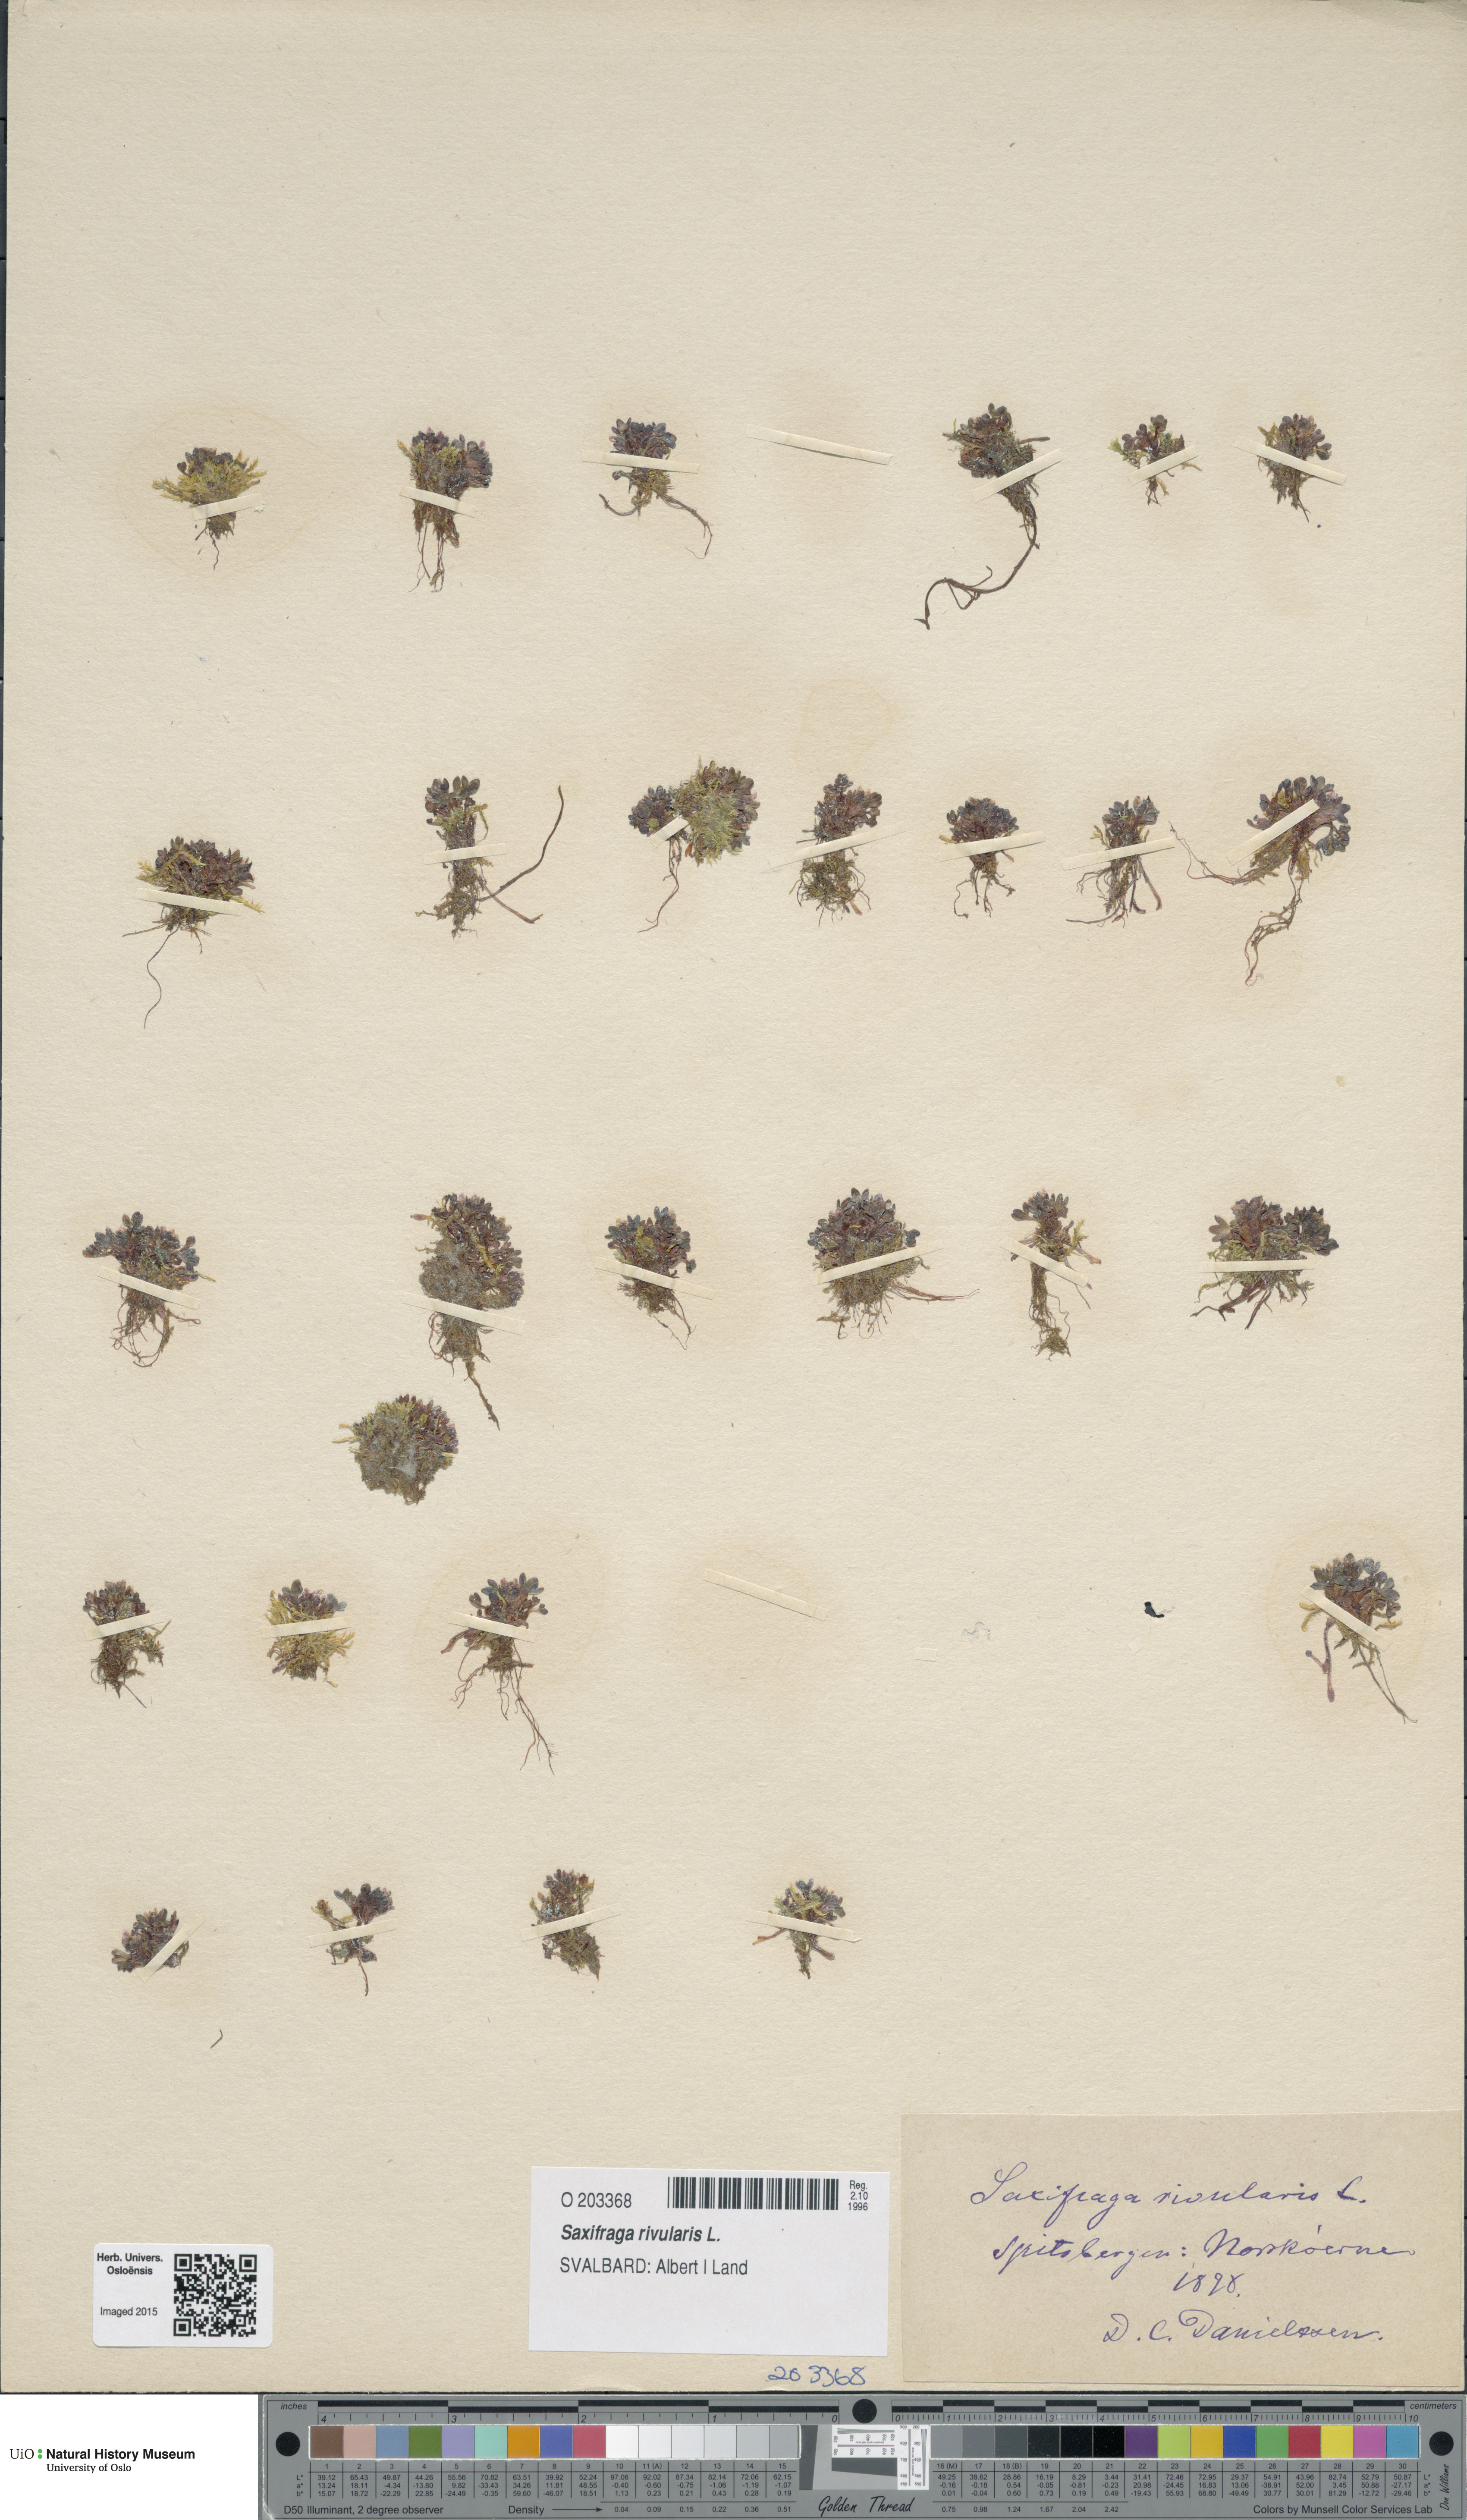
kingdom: Plantae
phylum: Tracheophyta
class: Magnoliopsida
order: Saxifragales
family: Saxifragaceae
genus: Saxifraga
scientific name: Saxifraga rivularis
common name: Highland saxifrage
